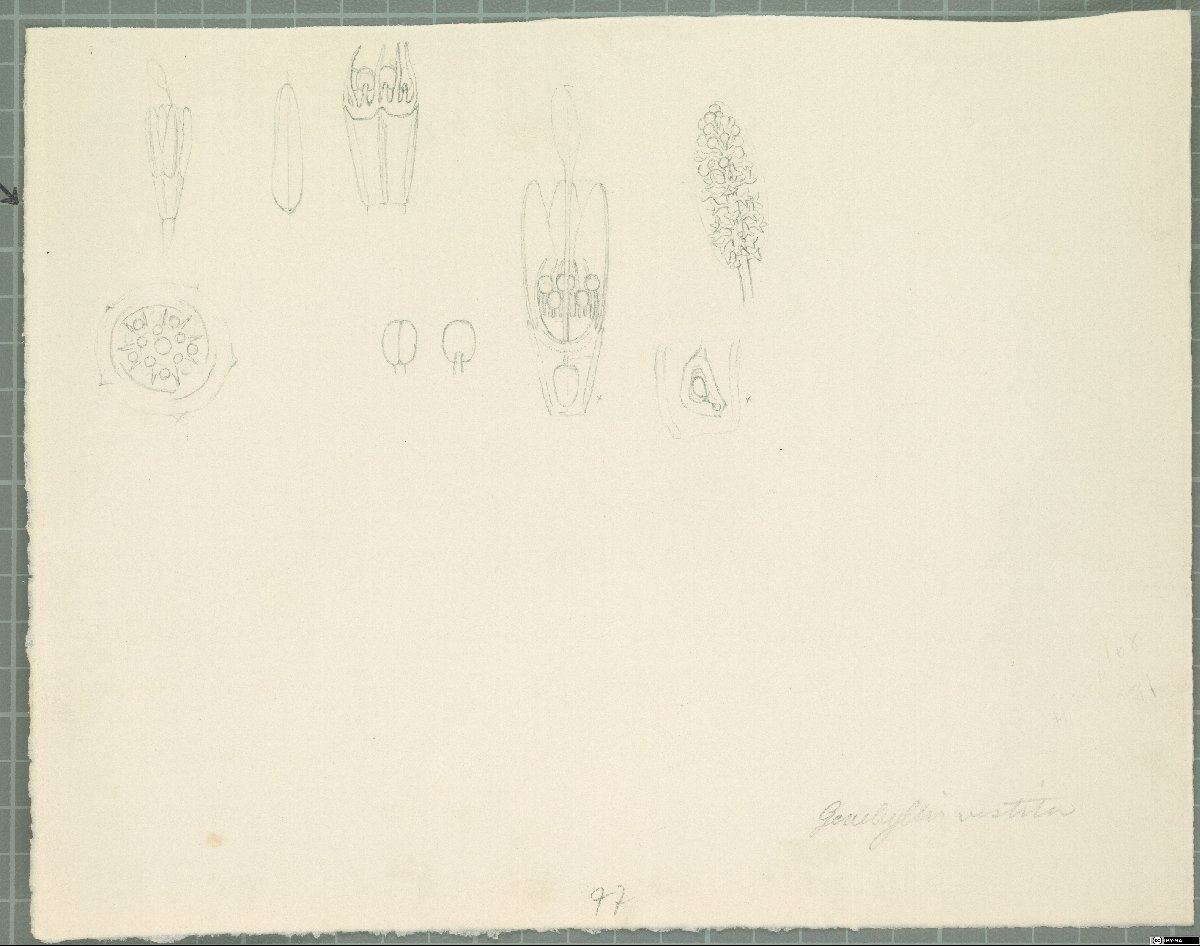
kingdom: Plantae
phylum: Tracheophyta
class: Magnoliopsida
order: Myrtales
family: Myrtaceae
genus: Darwinia
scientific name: Darwinia vestita
